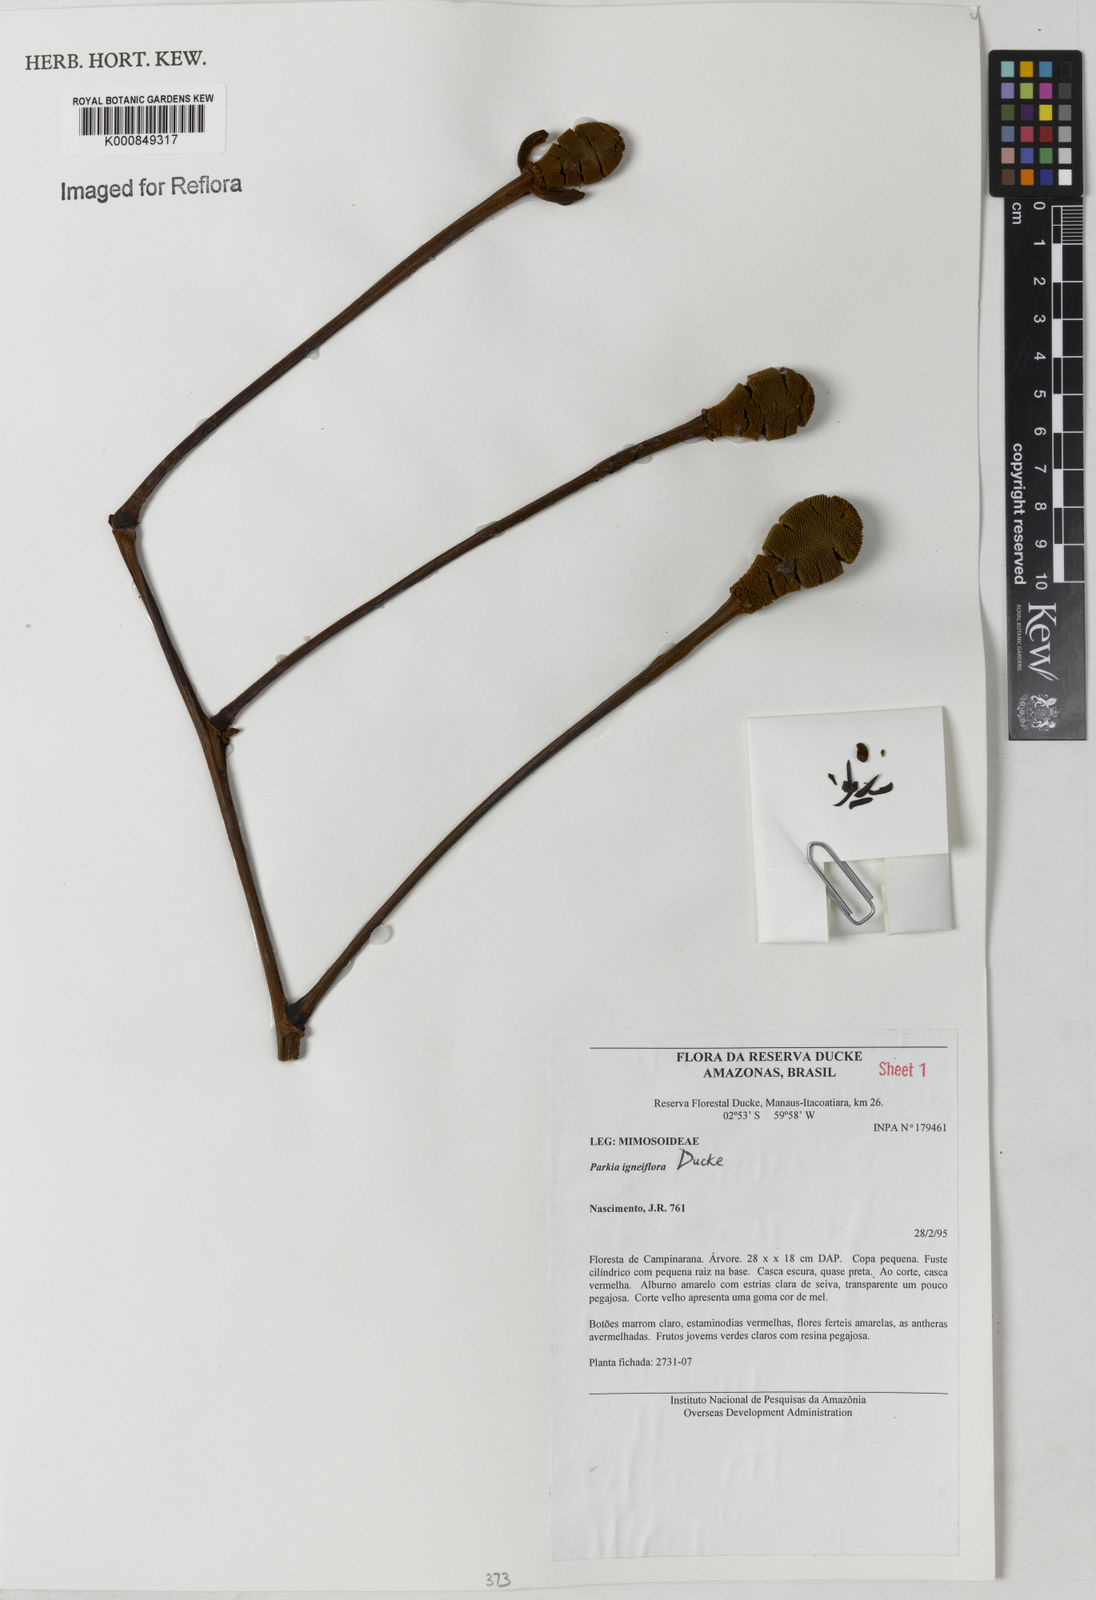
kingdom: Plantae
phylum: Tracheophyta
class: Magnoliopsida
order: Fabales
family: Fabaceae
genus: Parkia
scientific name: Parkia igneiflora
